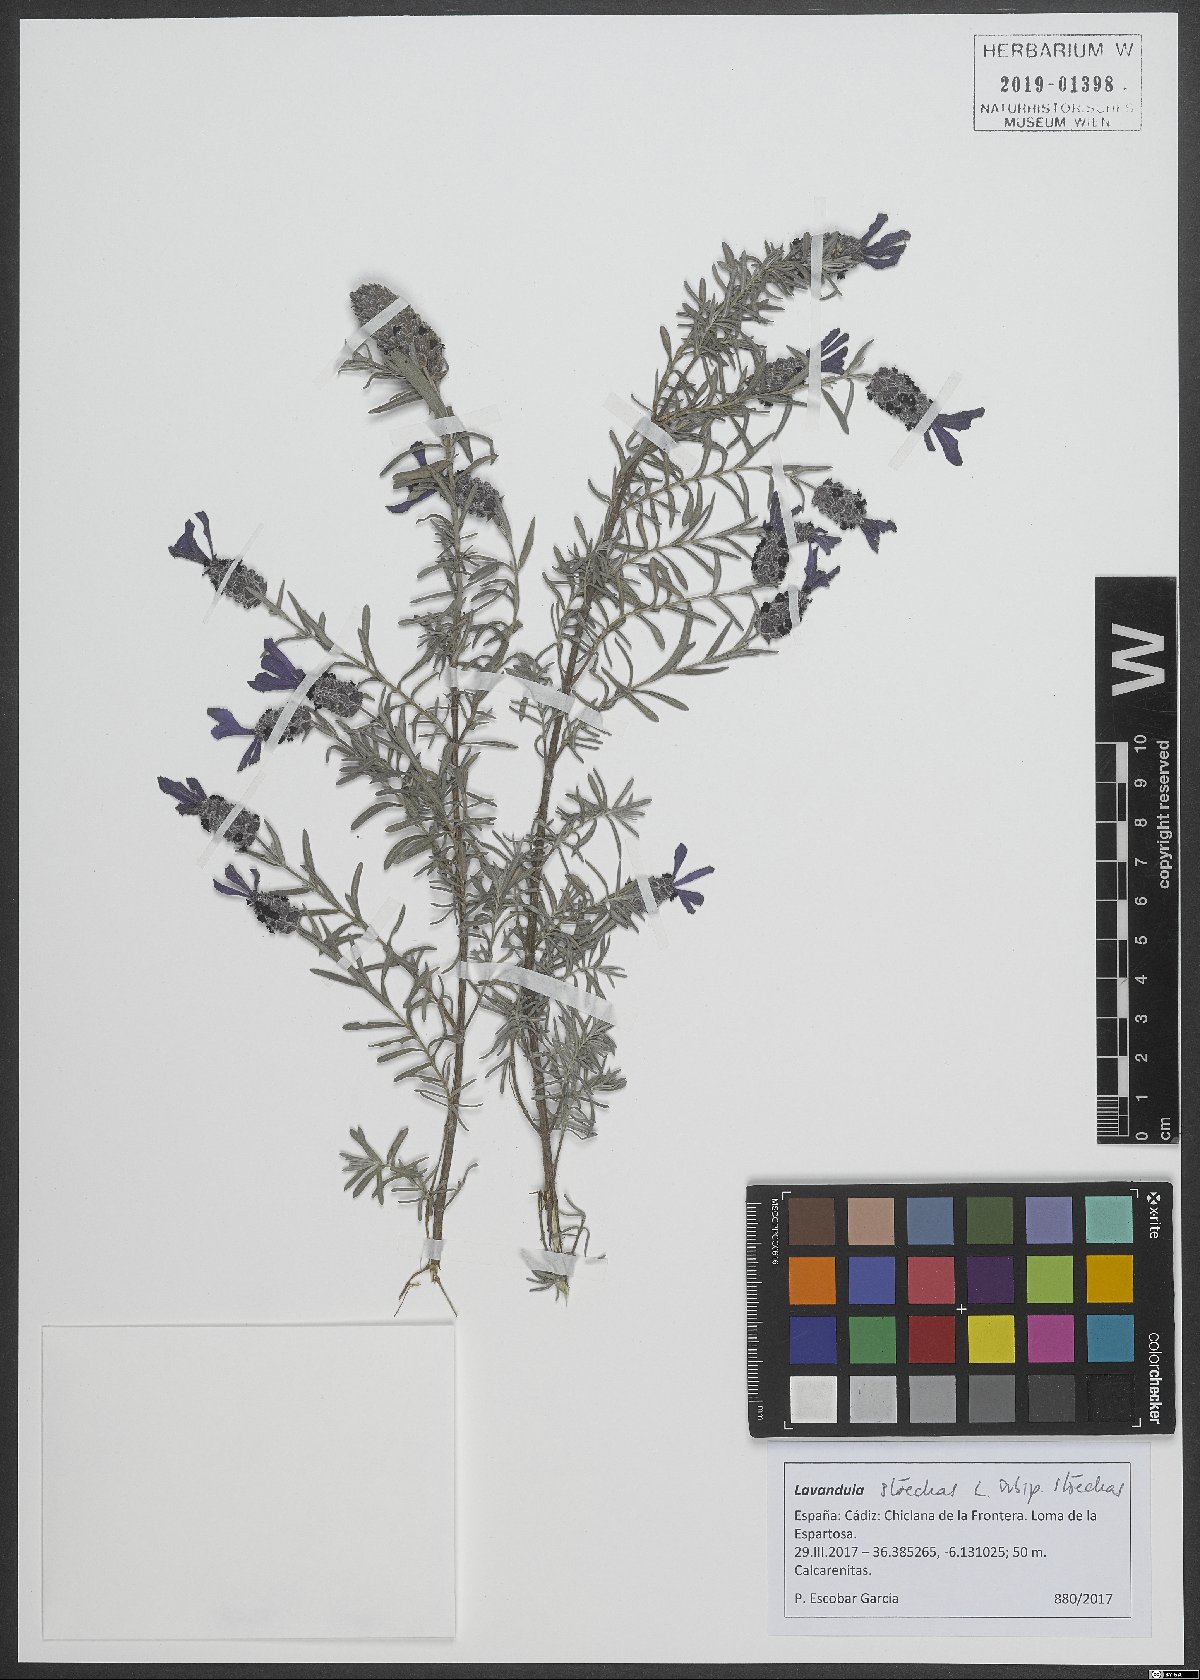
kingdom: Plantae
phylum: Tracheophyta
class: Magnoliopsida
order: Lamiales
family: Lamiaceae
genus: Lavandula
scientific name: Lavandula stoechas
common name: French lavender
